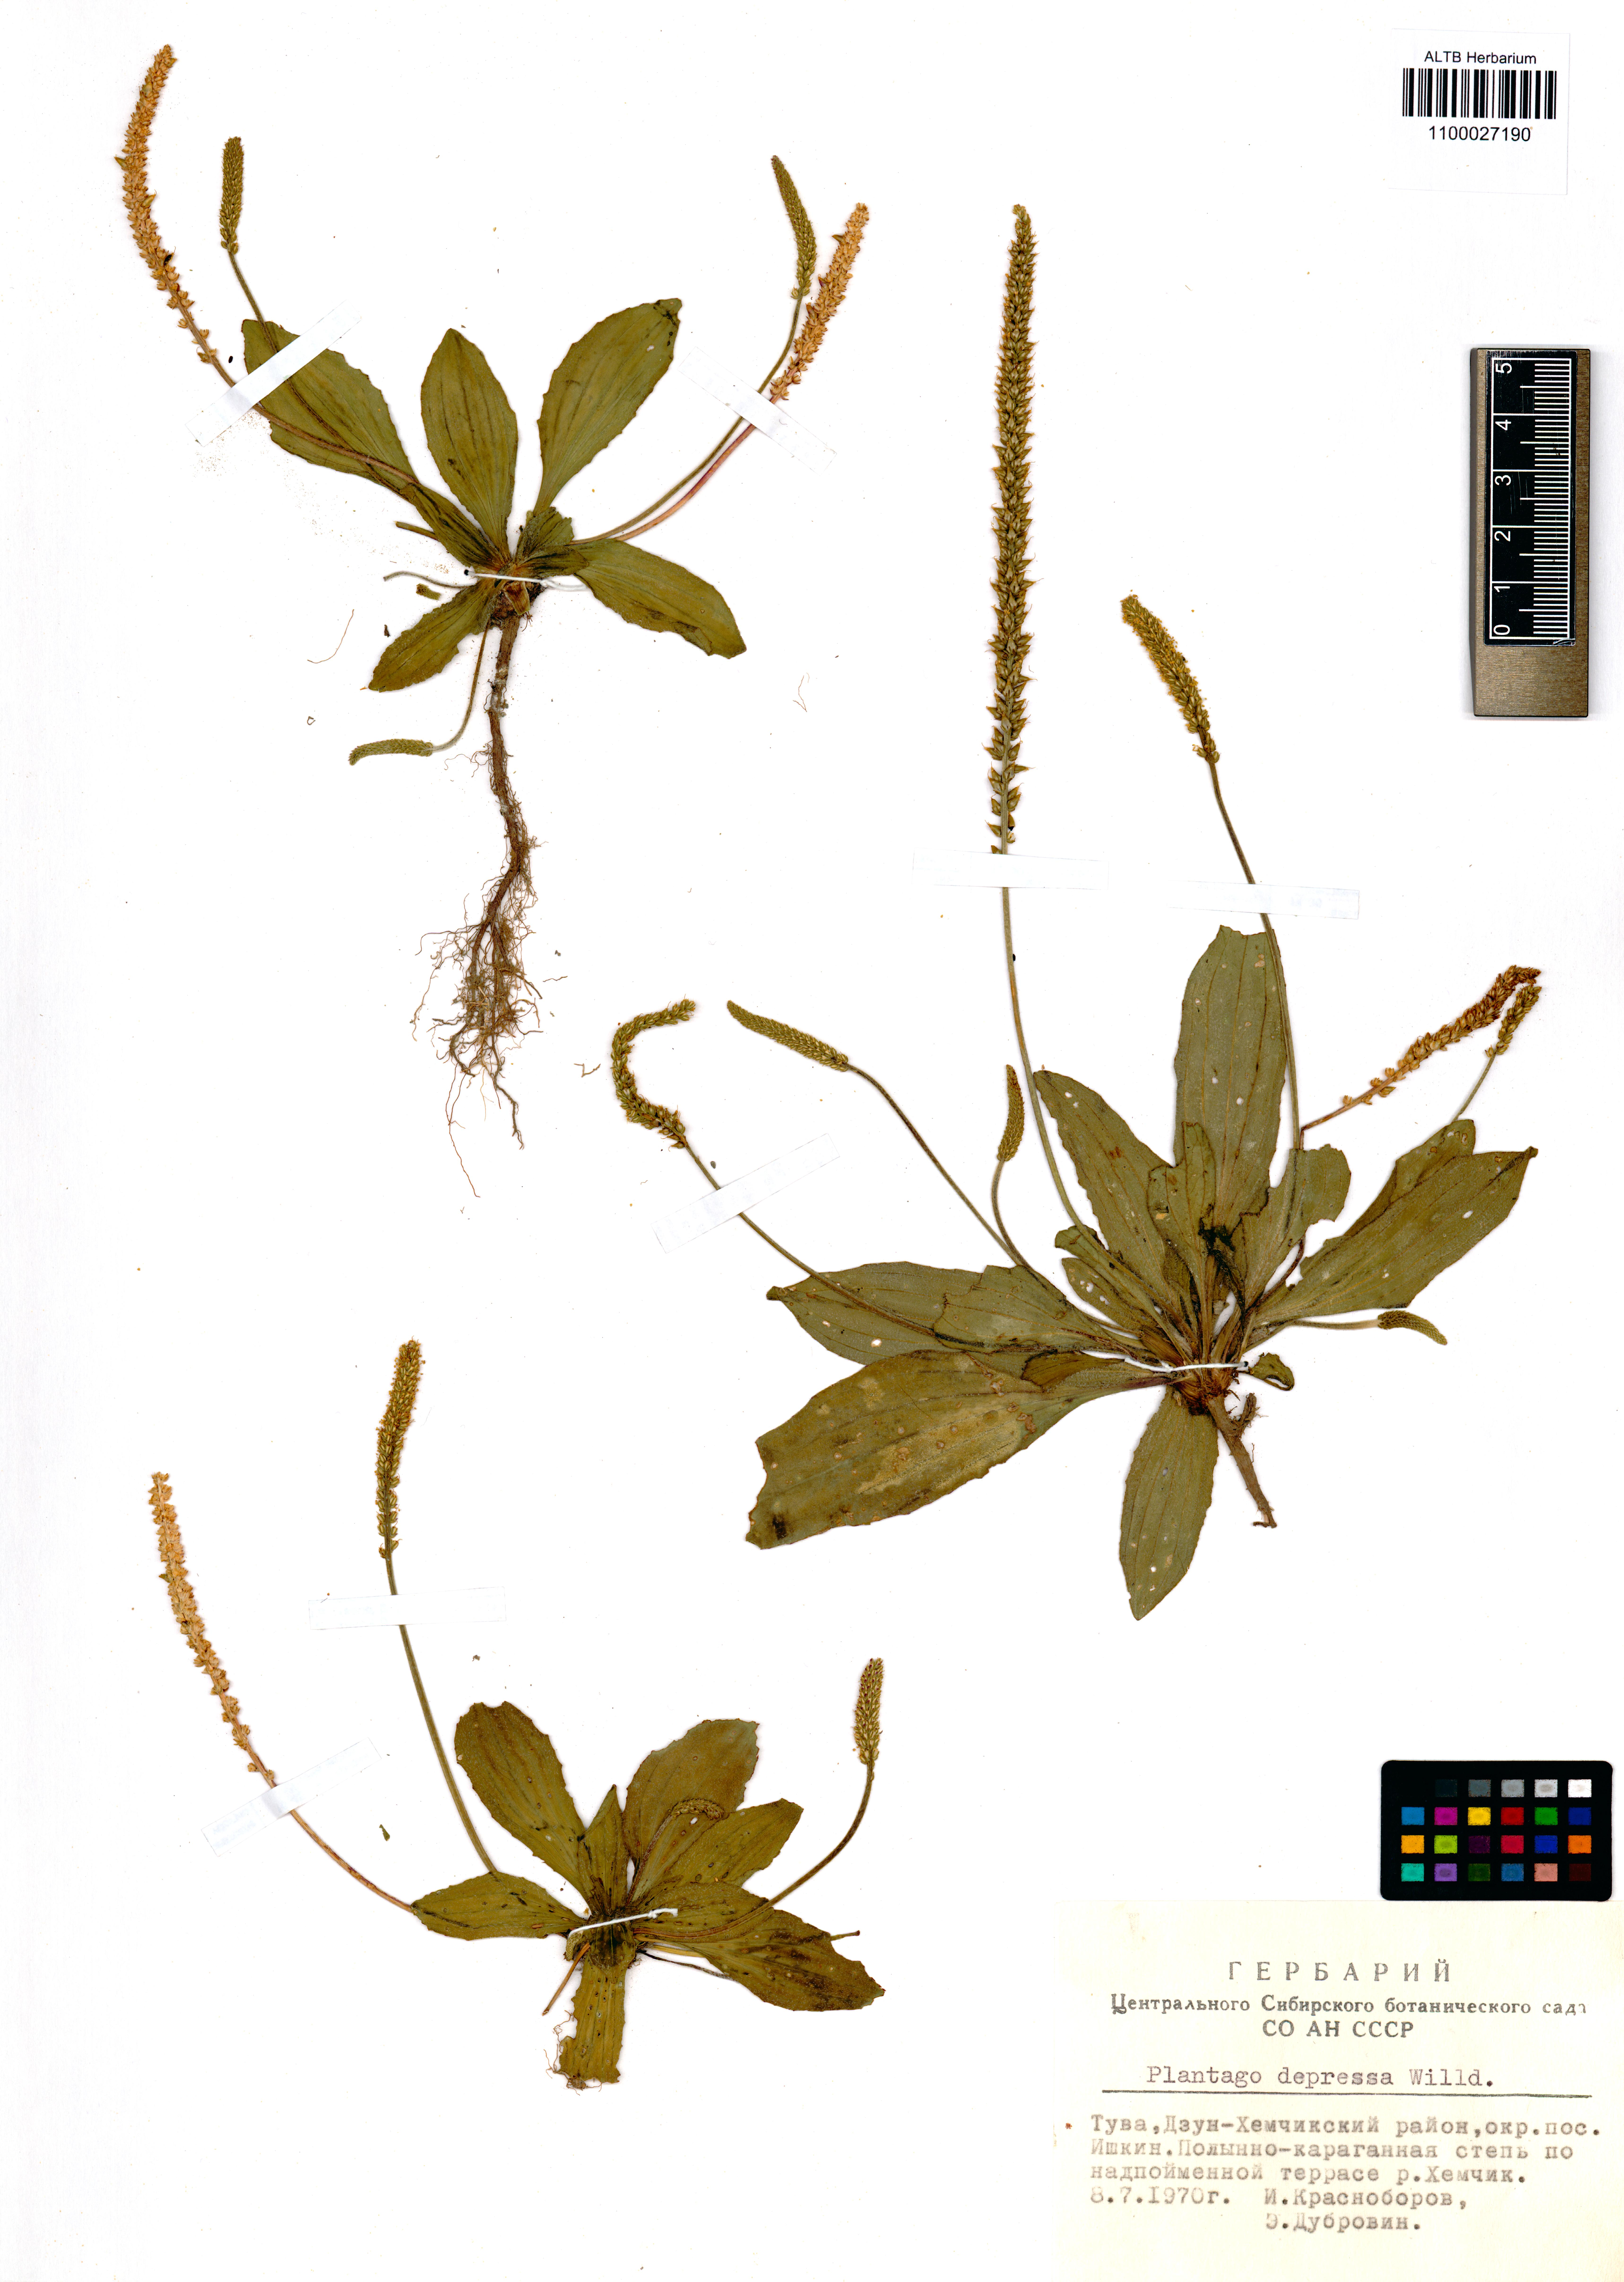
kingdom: Plantae
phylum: Tracheophyta
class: Magnoliopsida
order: Lamiales
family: Plantaginaceae
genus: Plantago
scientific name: Plantago depressa
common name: Depressed plantain
